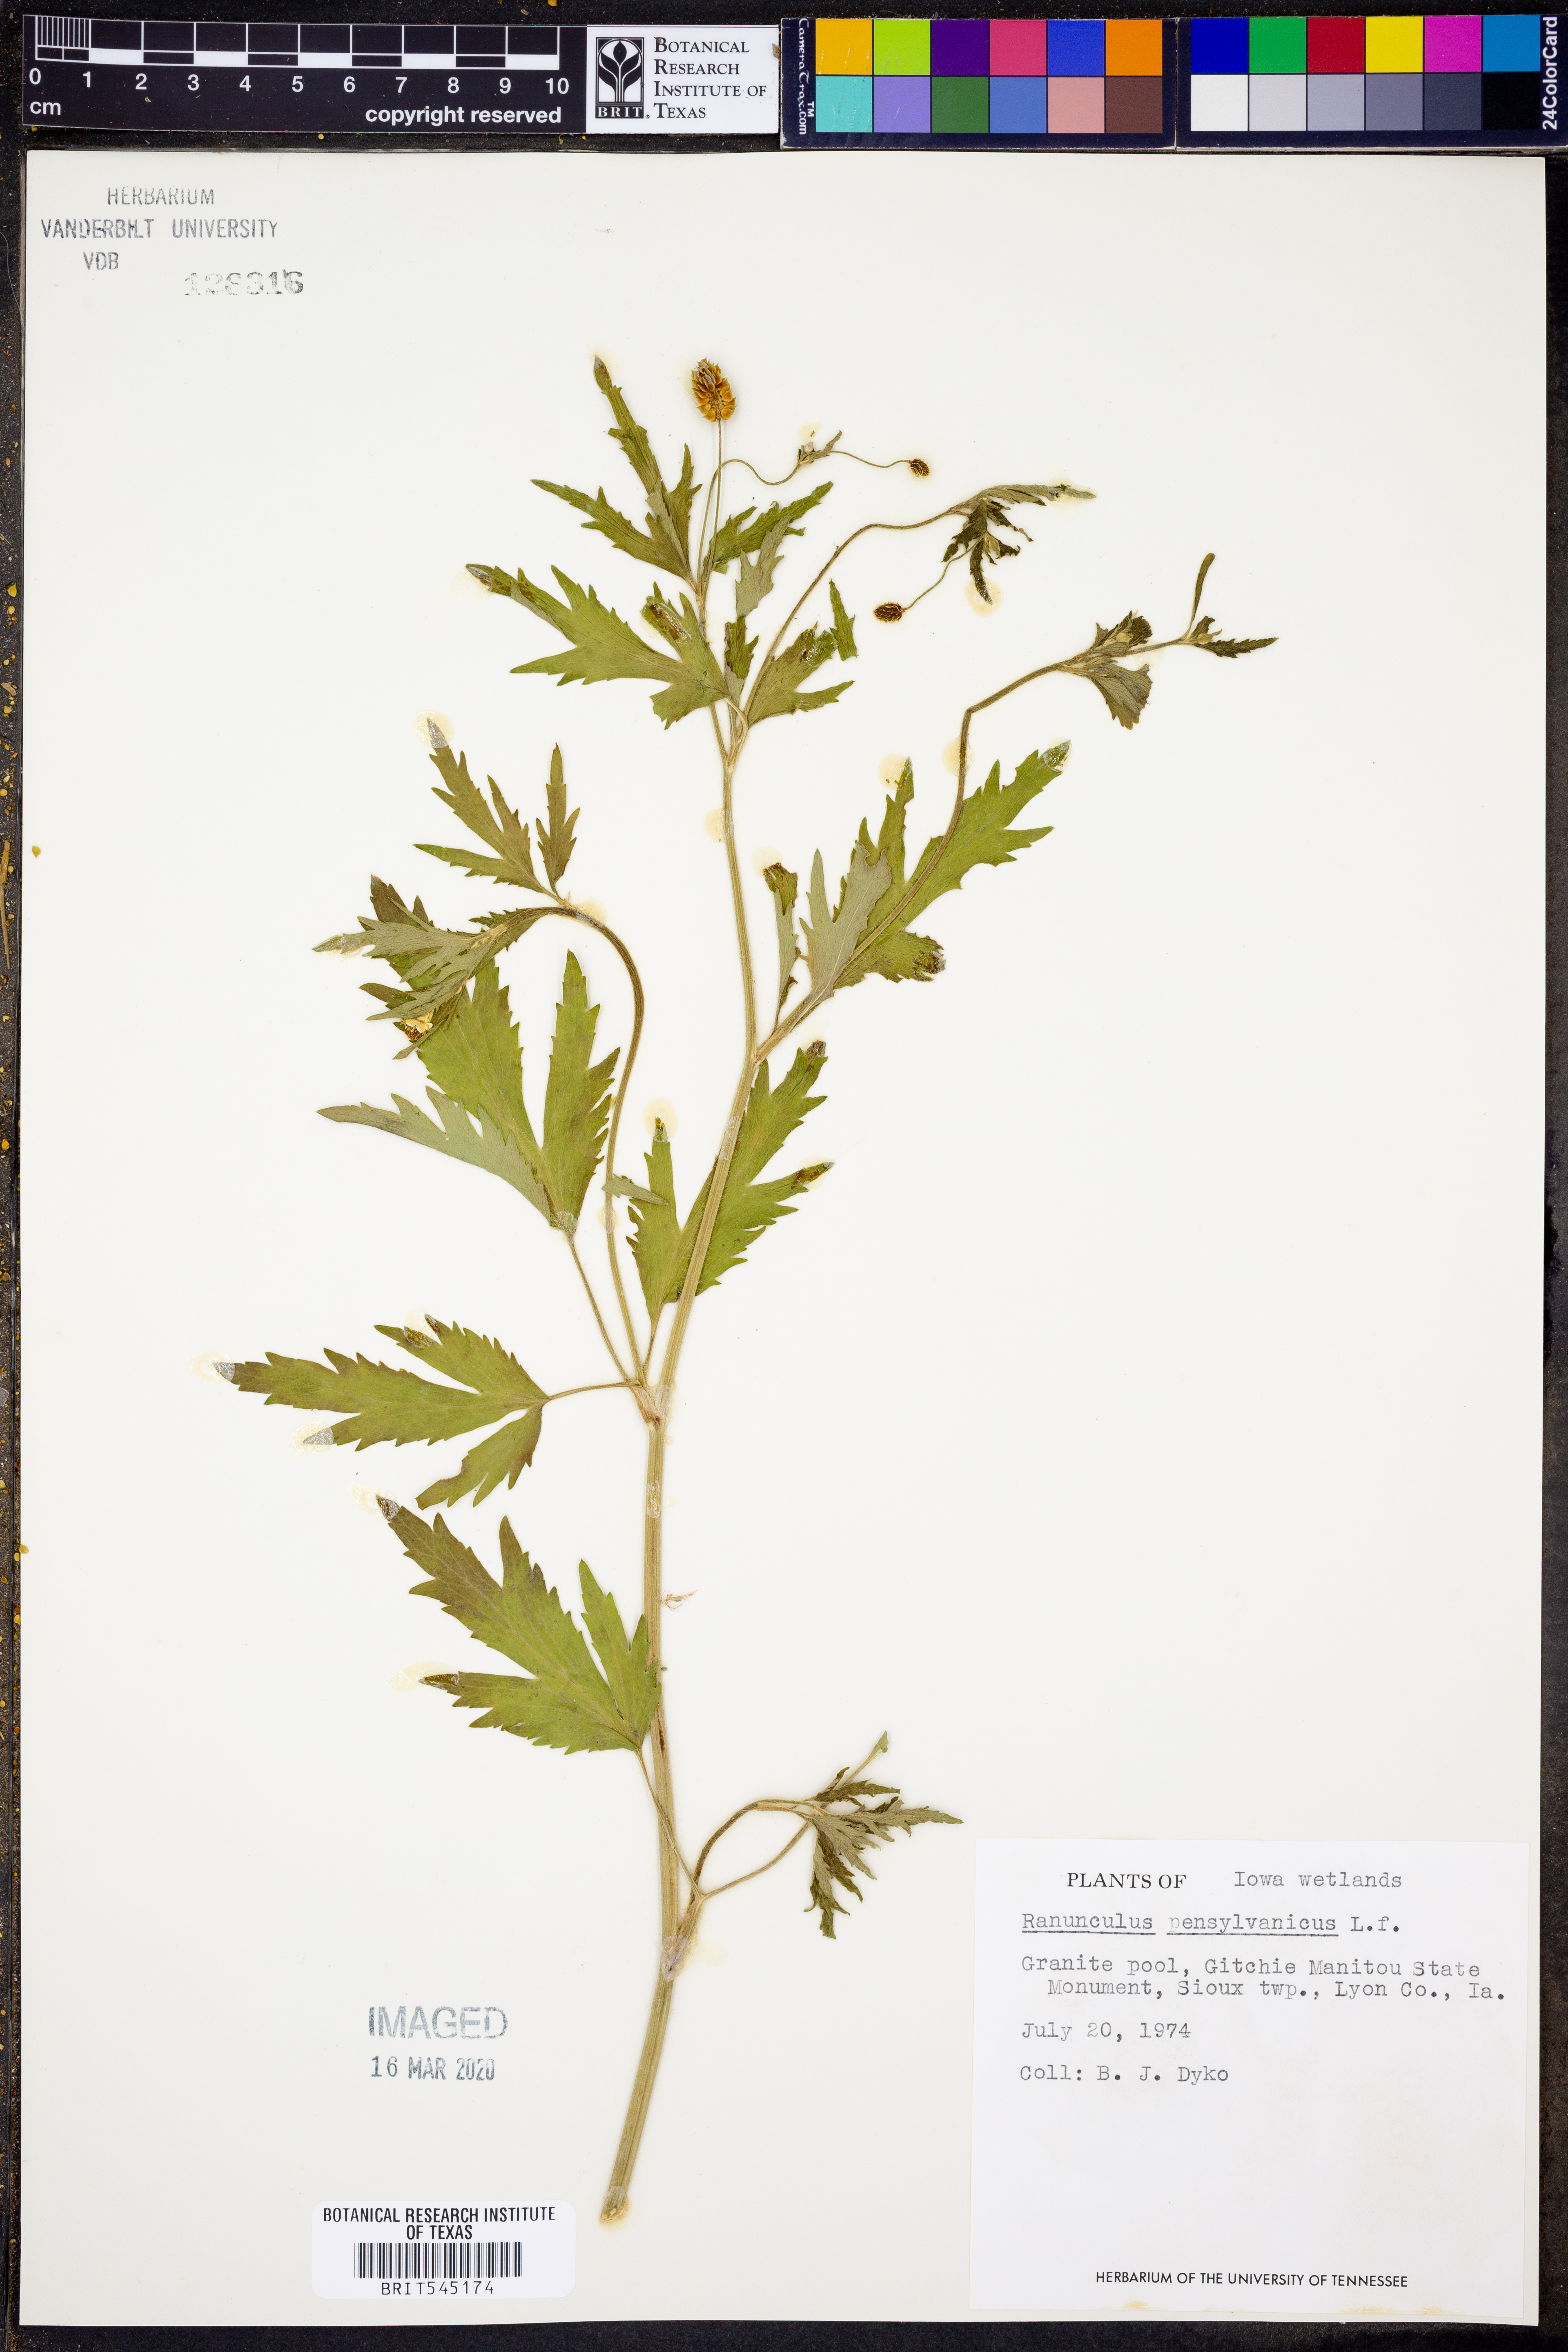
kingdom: Plantae
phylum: Tracheophyta
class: Magnoliopsida
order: Ranunculales
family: Ranunculaceae
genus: Ranunculus
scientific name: Ranunculus pensylvanicus
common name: Bristly buttercup
